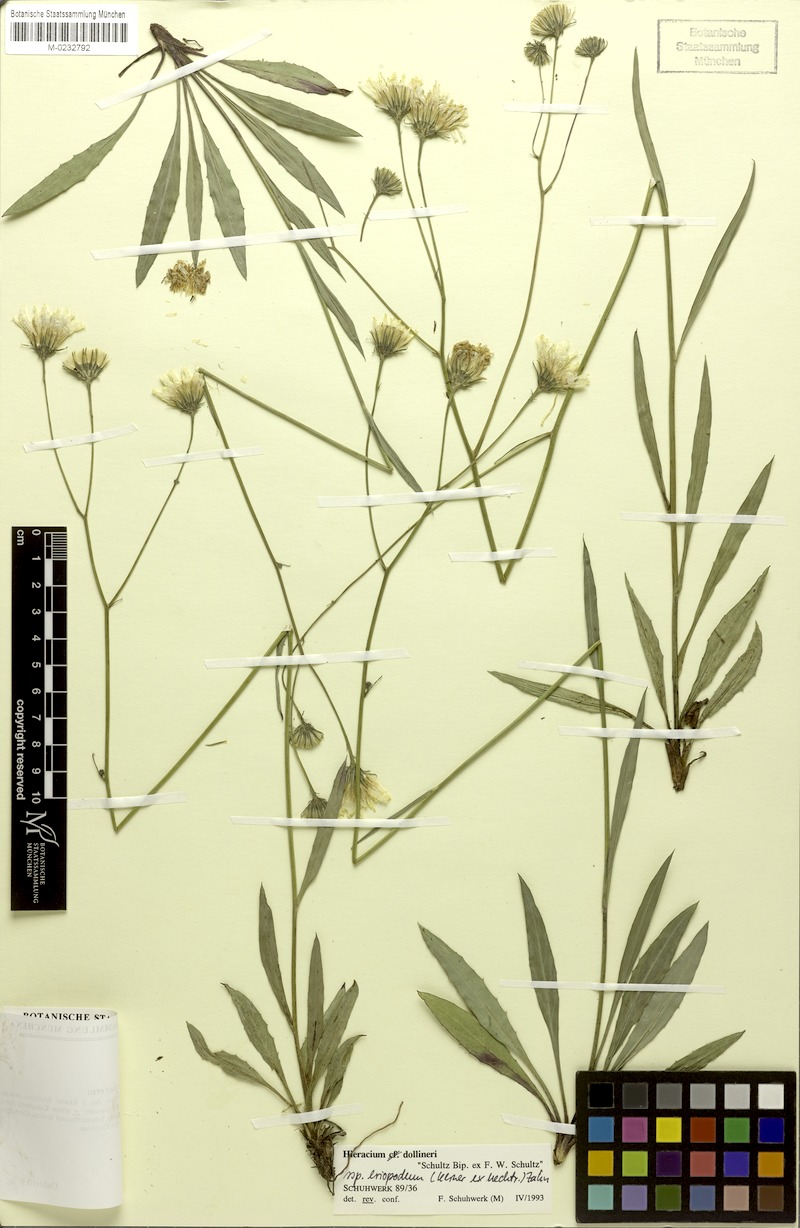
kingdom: Plantae
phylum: Tracheophyta
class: Magnoliopsida
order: Asterales
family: Asteraceae
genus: Hieracium
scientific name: Hieracium dollineri
